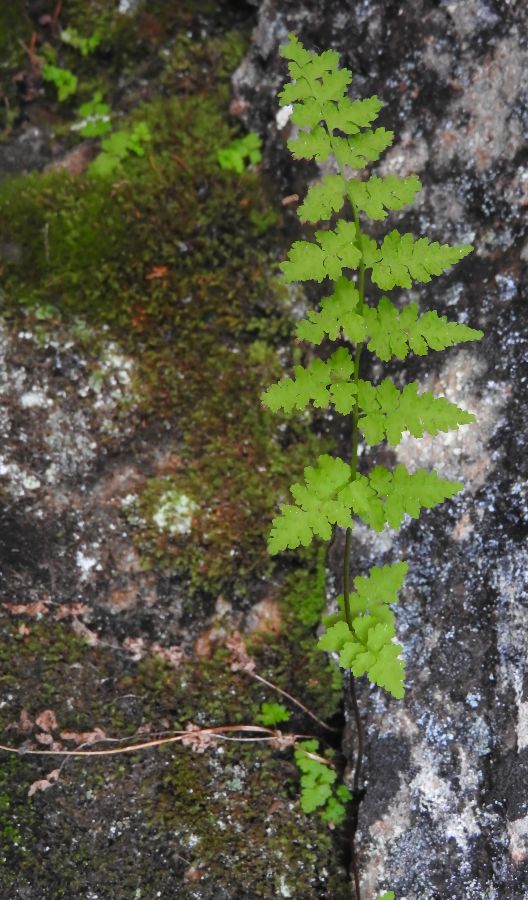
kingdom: Plantae
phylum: Tracheophyta
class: Polypodiopsida
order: Polypodiales
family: Cystopteridaceae
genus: Cystopteris
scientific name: Cystopteris fragilis
